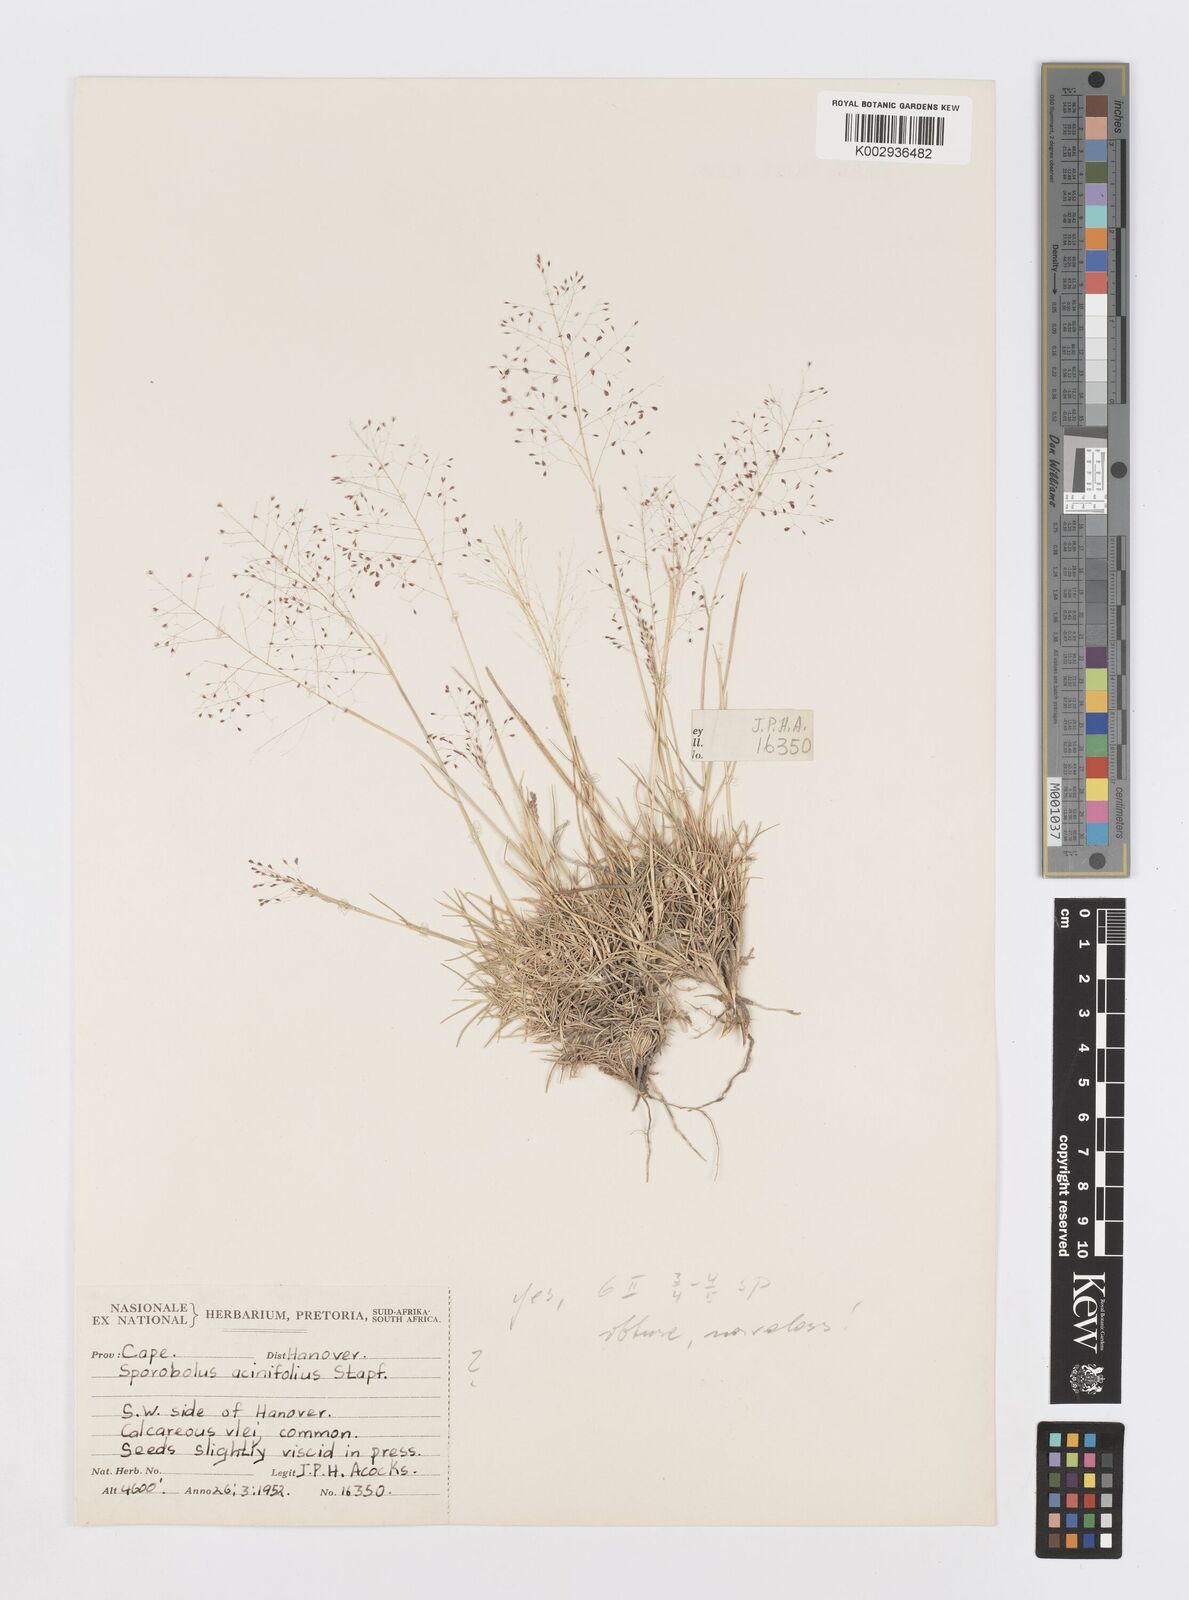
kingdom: Plantae
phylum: Tracheophyta
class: Liliopsida
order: Poales
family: Poaceae
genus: Sporobolus
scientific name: Sporobolus acinifolius
